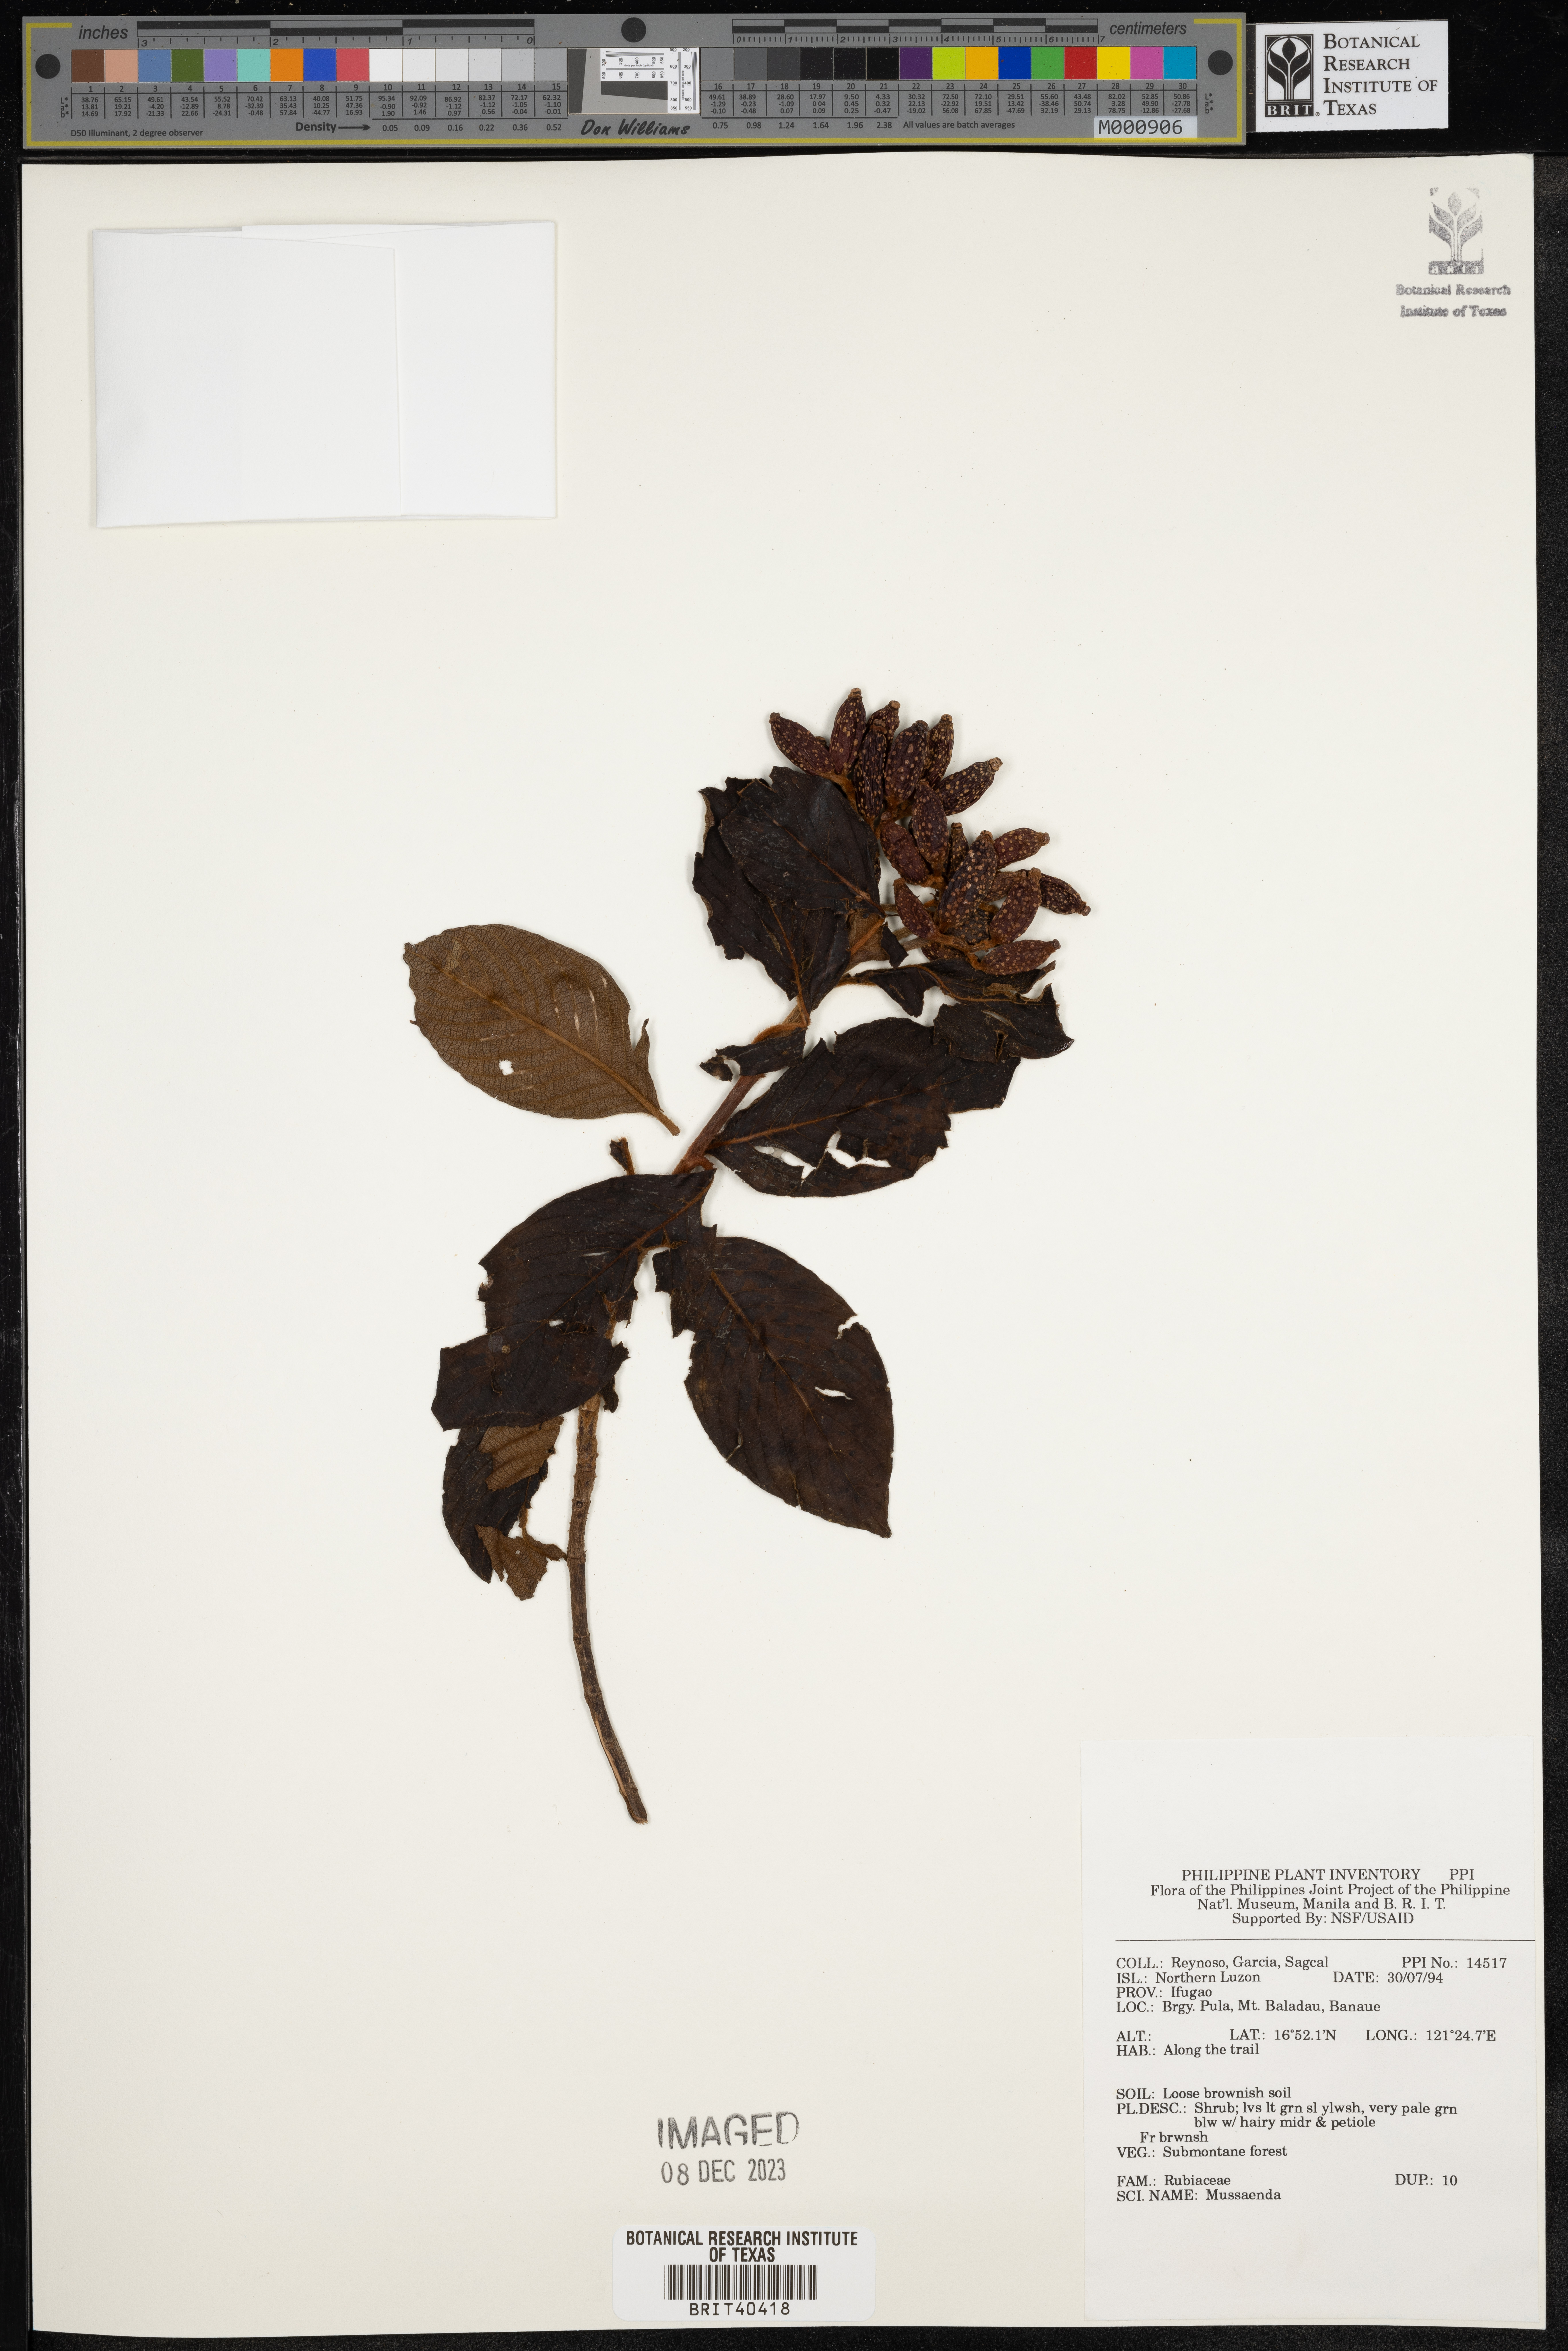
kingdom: Plantae
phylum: Tracheophyta
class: Magnoliopsida
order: Gentianales
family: Rubiaceae
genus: Mussaenda
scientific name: Mussaenda
